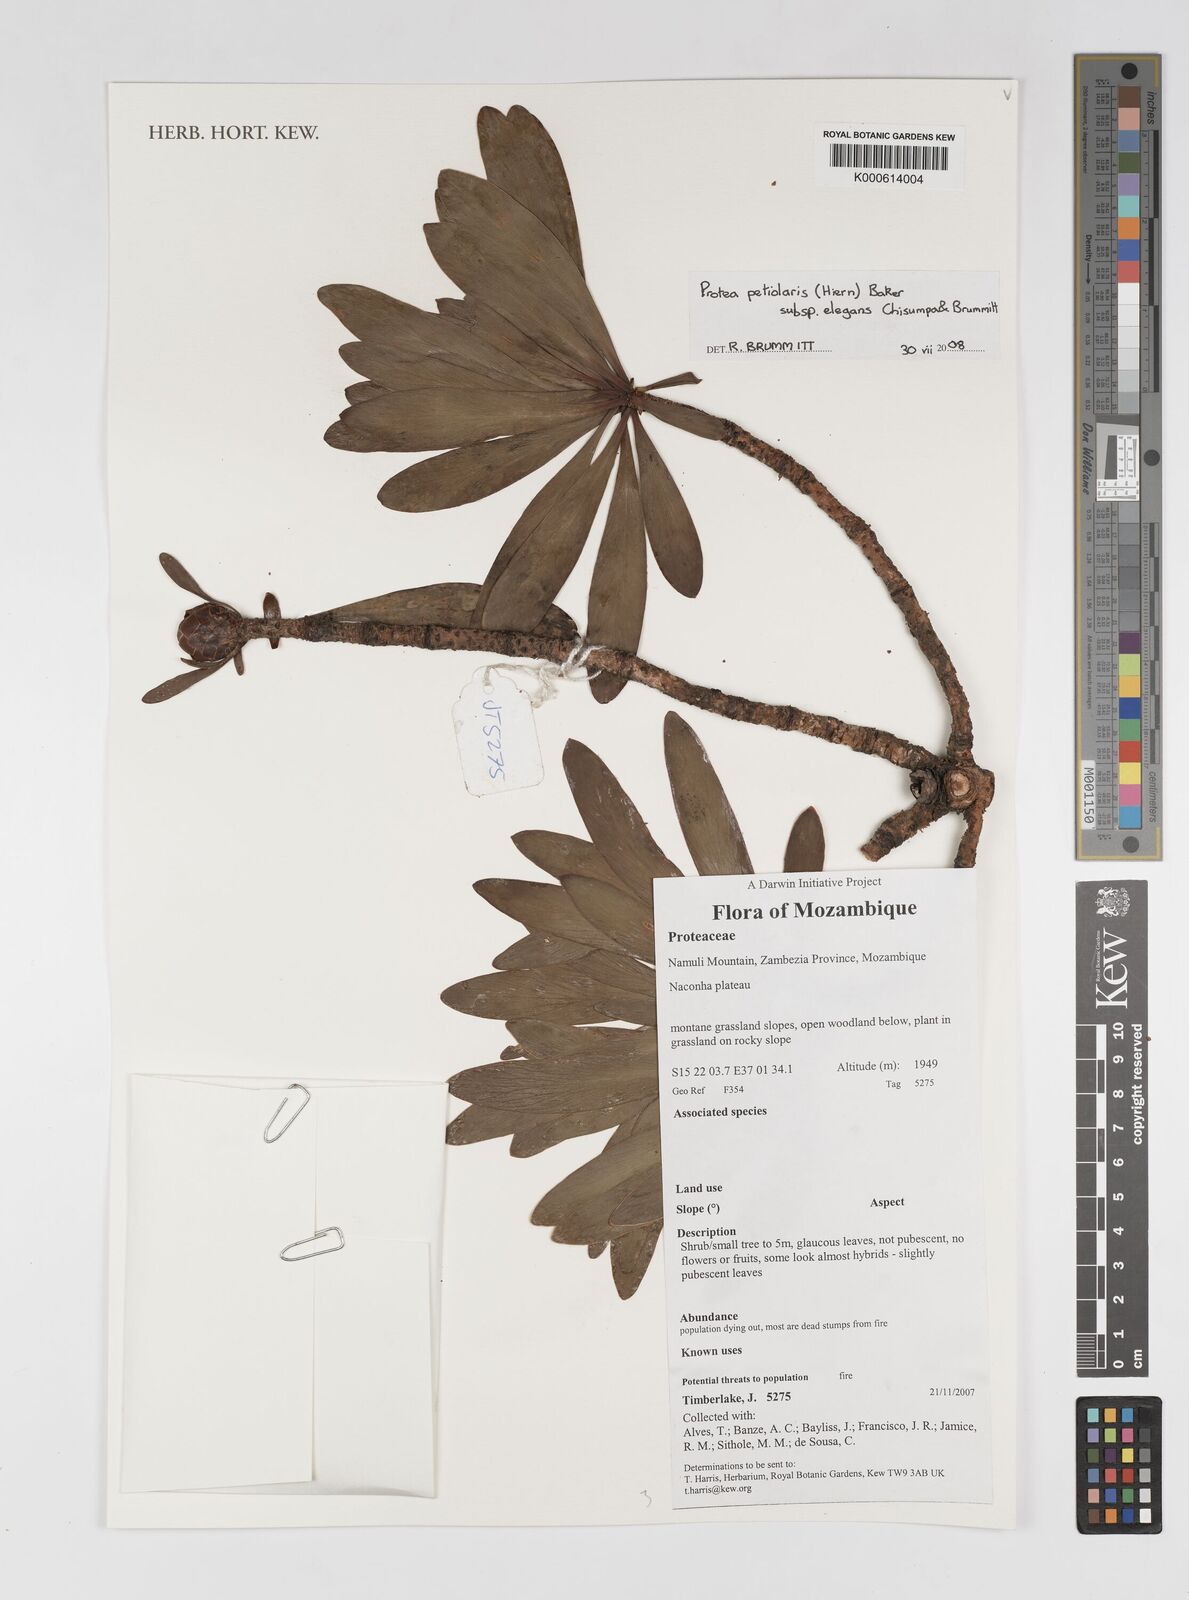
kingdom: Plantae
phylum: Tracheophyta
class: Magnoliopsida
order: Proteales
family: Proteaceae
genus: Protea
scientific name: Protea petiolaris
